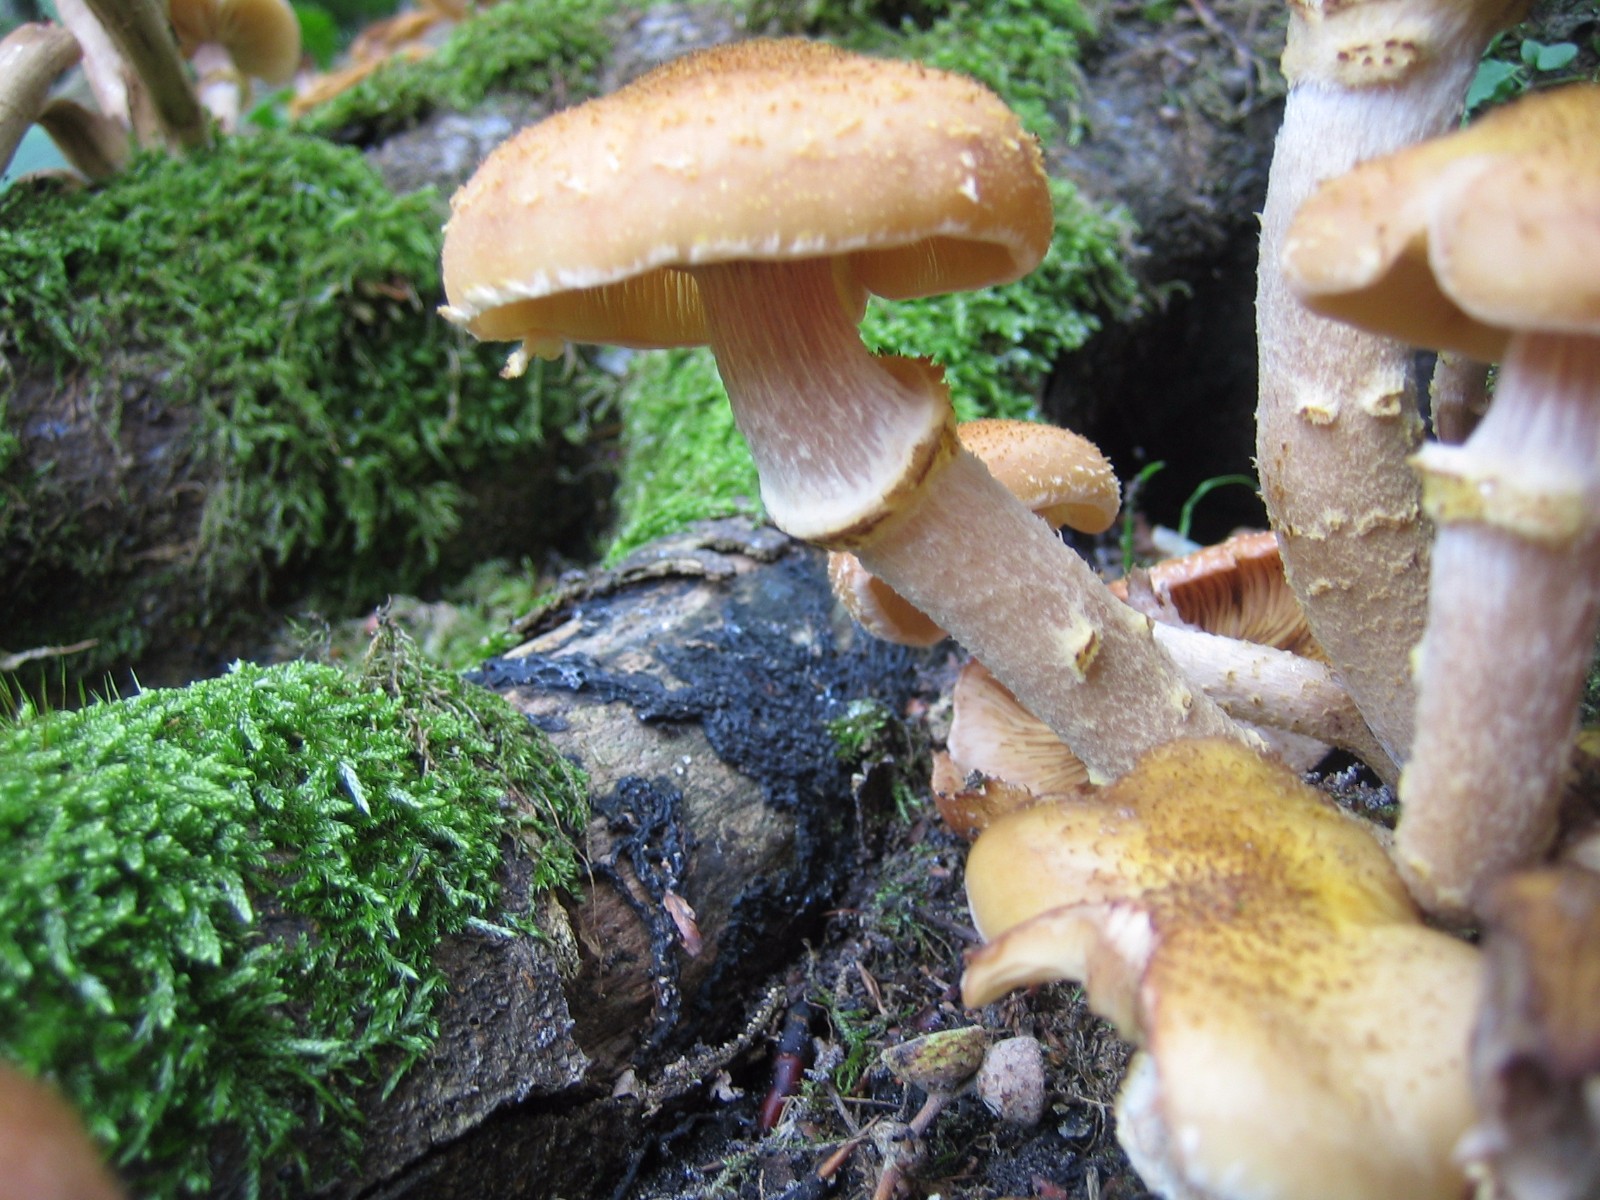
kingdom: Fungi
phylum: Basidiomycota
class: Agaricomycetes
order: Agaricales
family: Physalacriaceae
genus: Armillaria
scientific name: Armillaria lutea
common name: køllestokket honningsvamp
